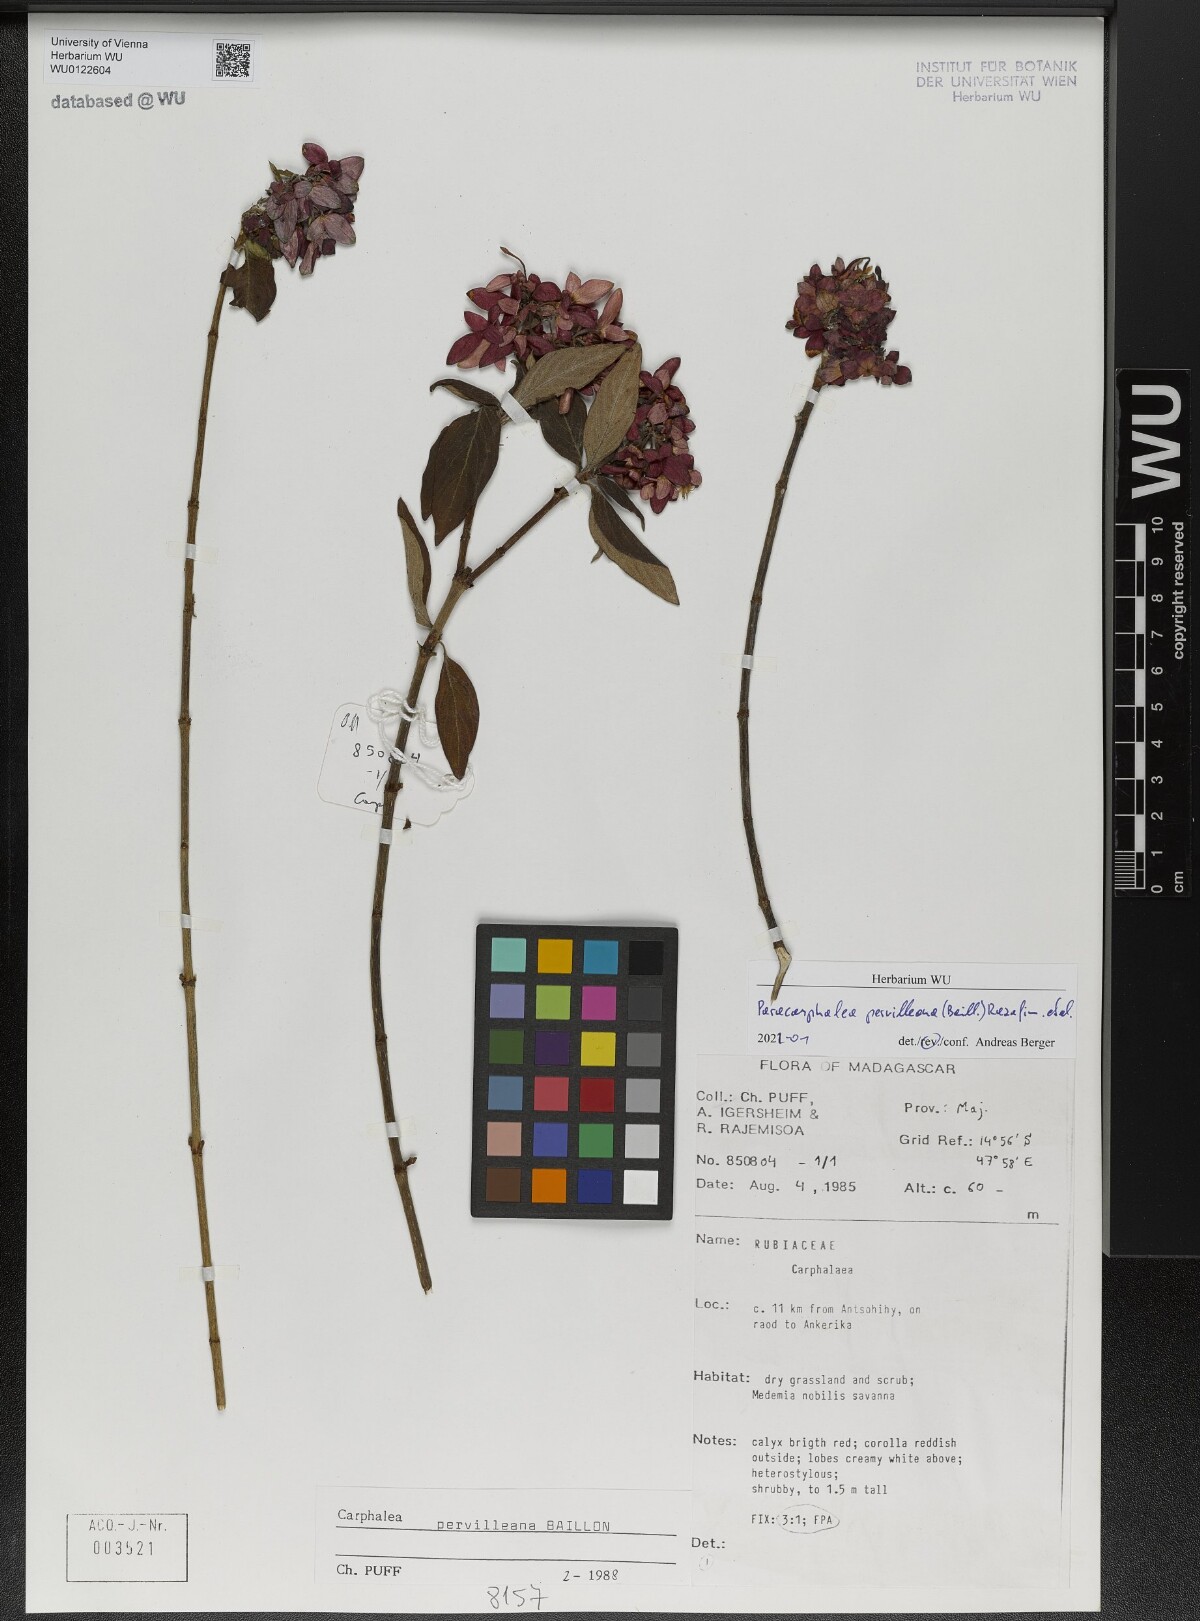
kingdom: Plantae
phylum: Tracheophyta
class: Magnoliopsida
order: Gentianales
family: Rubiaceae
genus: Paracarphalea
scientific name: Paracarphalea pervilleana
